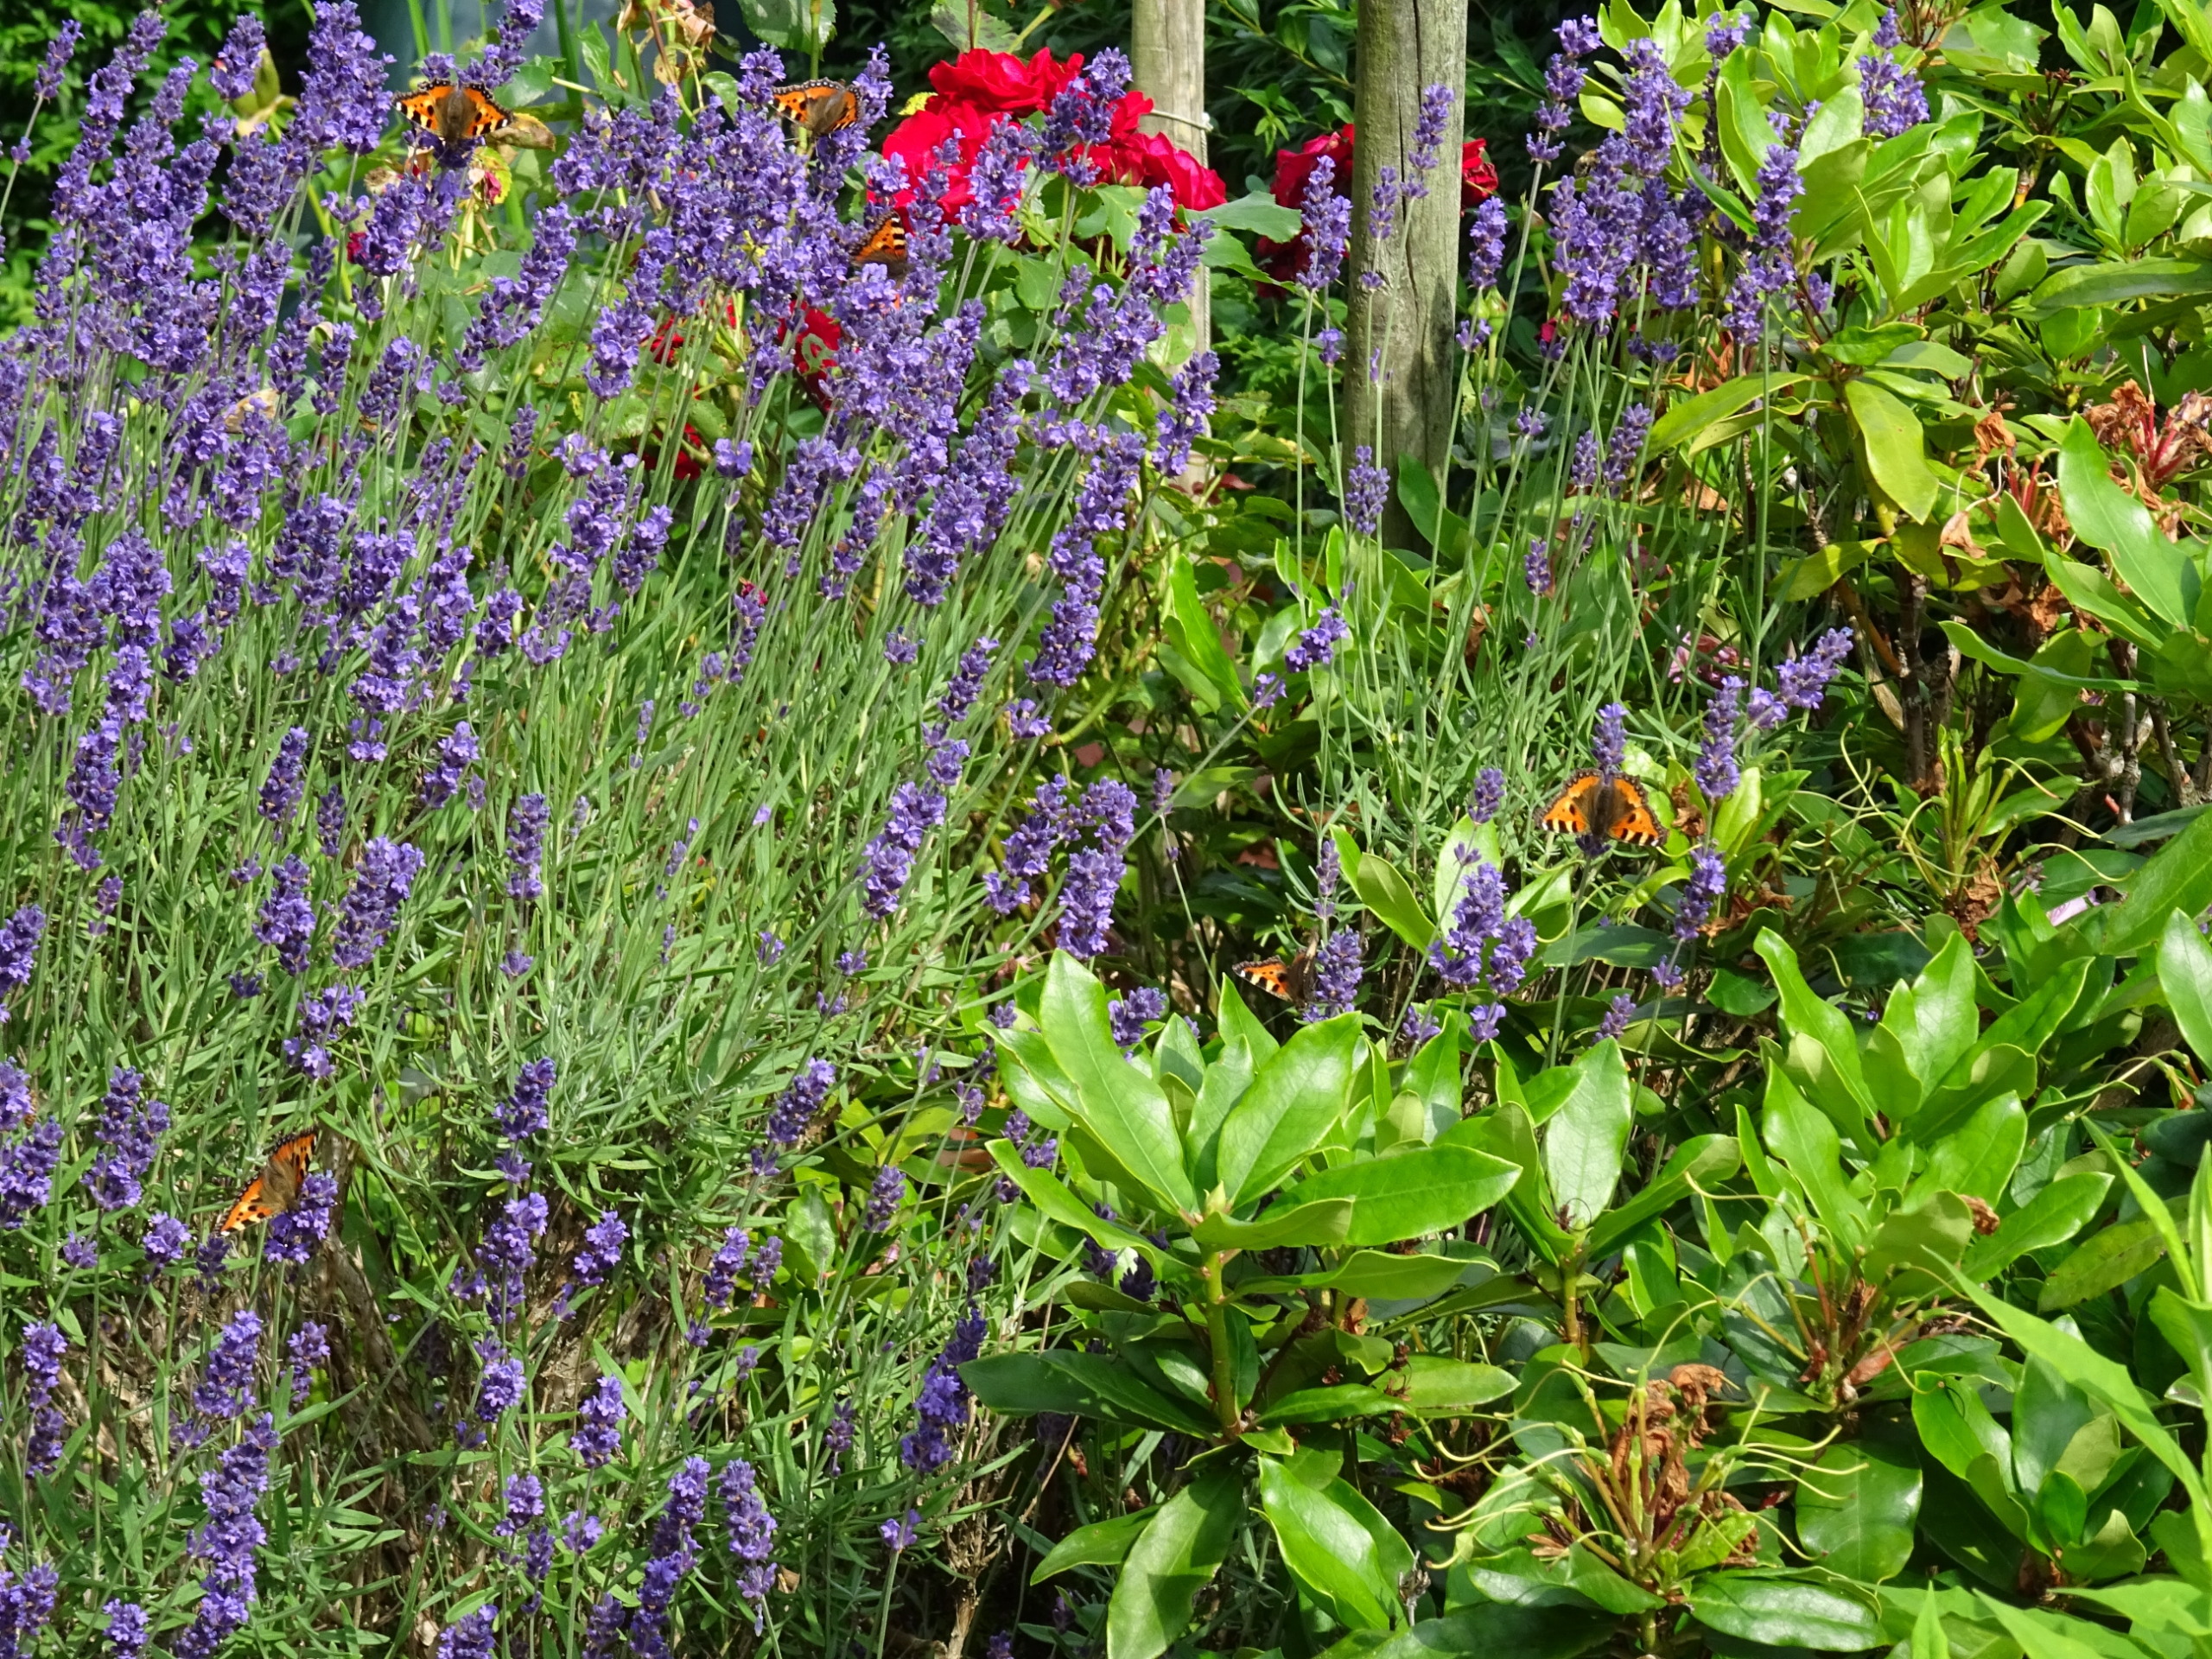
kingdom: Animalia
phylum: Arthropoda
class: Insecta
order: Lepidoptera
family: Nymphalidae
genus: Aglais
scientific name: Aglais urticae
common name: Nældens takvinge
